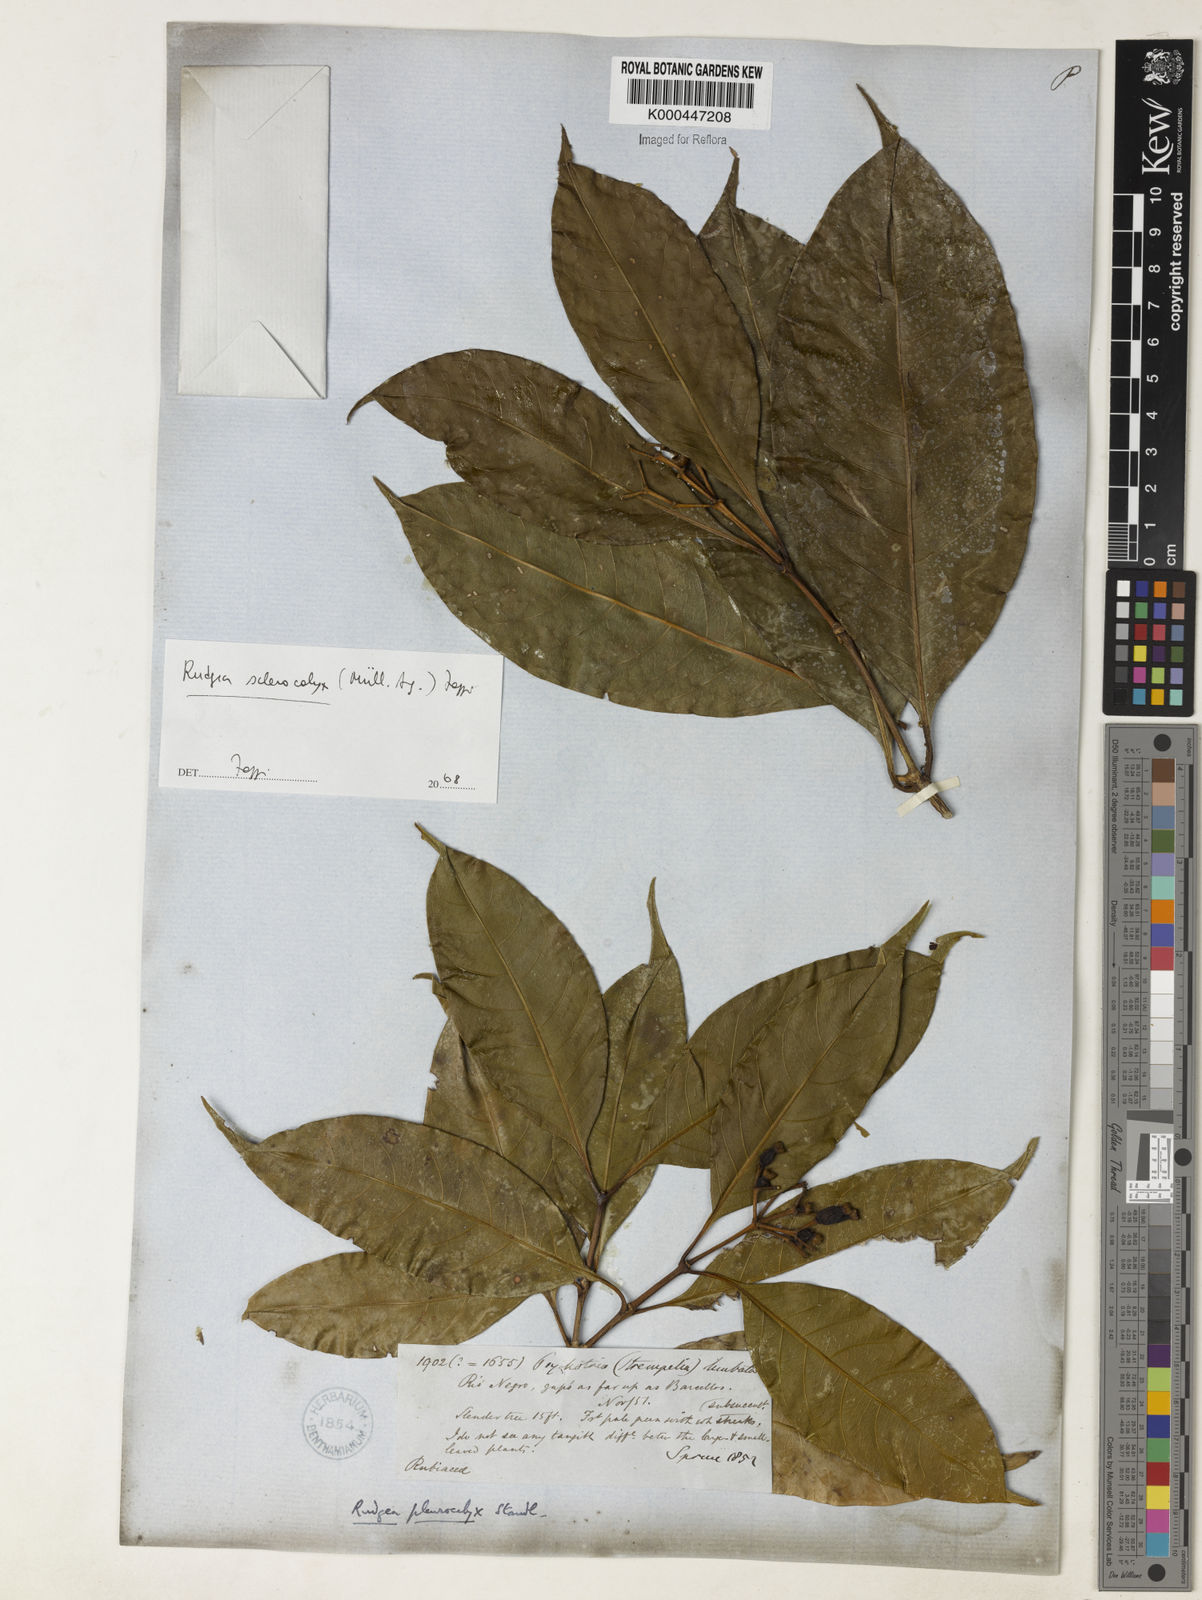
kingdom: Plantae
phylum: Tracheophyta
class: Magnoliopsida
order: Gentianales
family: Rubiaceae
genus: Rudgea
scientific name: Rudgea sclerocalyx
